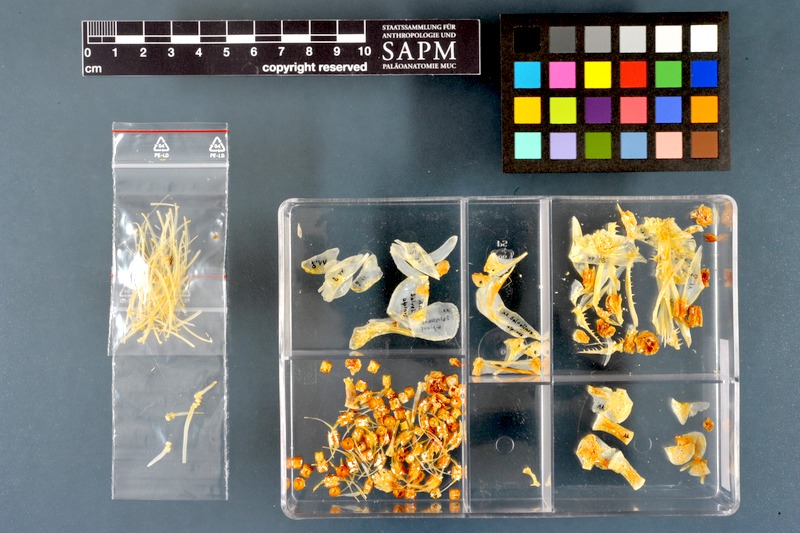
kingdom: Animalia
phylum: Chordata
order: Salmoniformes
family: Salmonidae
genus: Salvelinus
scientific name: Salvelinus alpinus
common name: Charr
